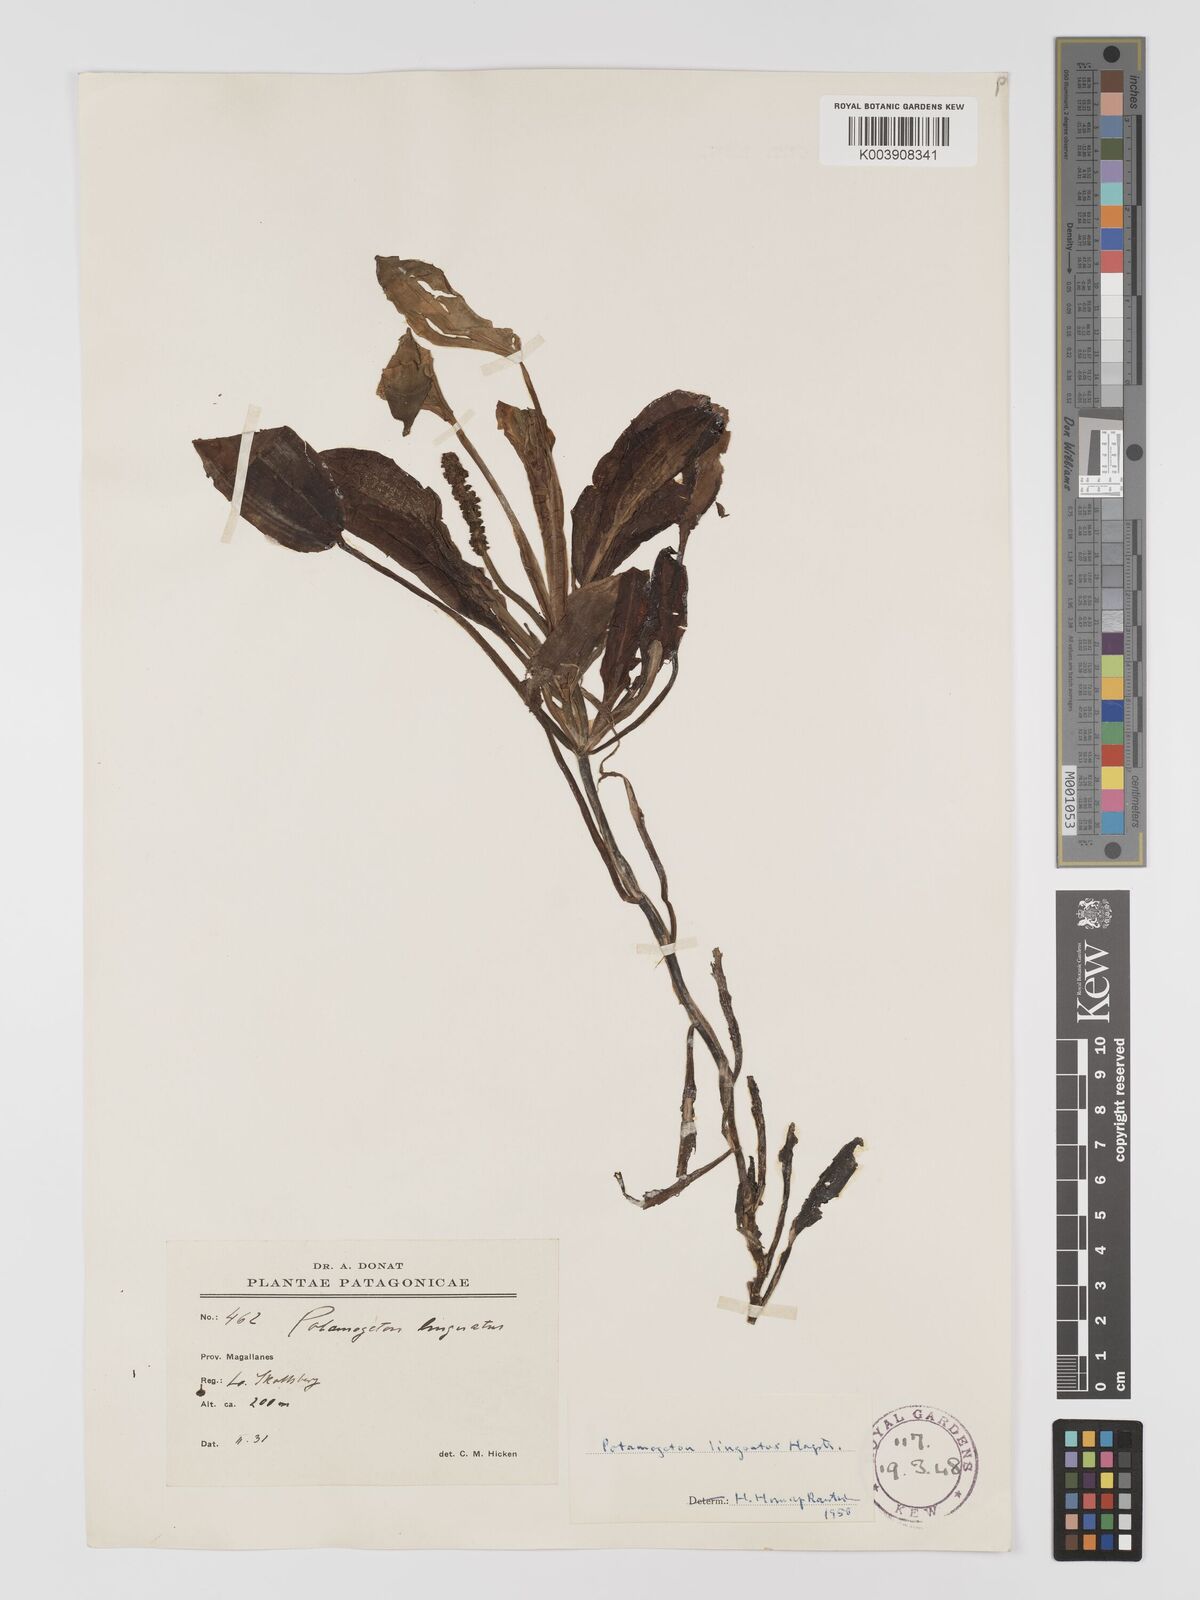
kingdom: Plantae
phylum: Tracheophyta
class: Liliopsida
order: Alismatales
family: Potamogetonaceae
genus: Potamogeton
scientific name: Potamogeton linguatus
